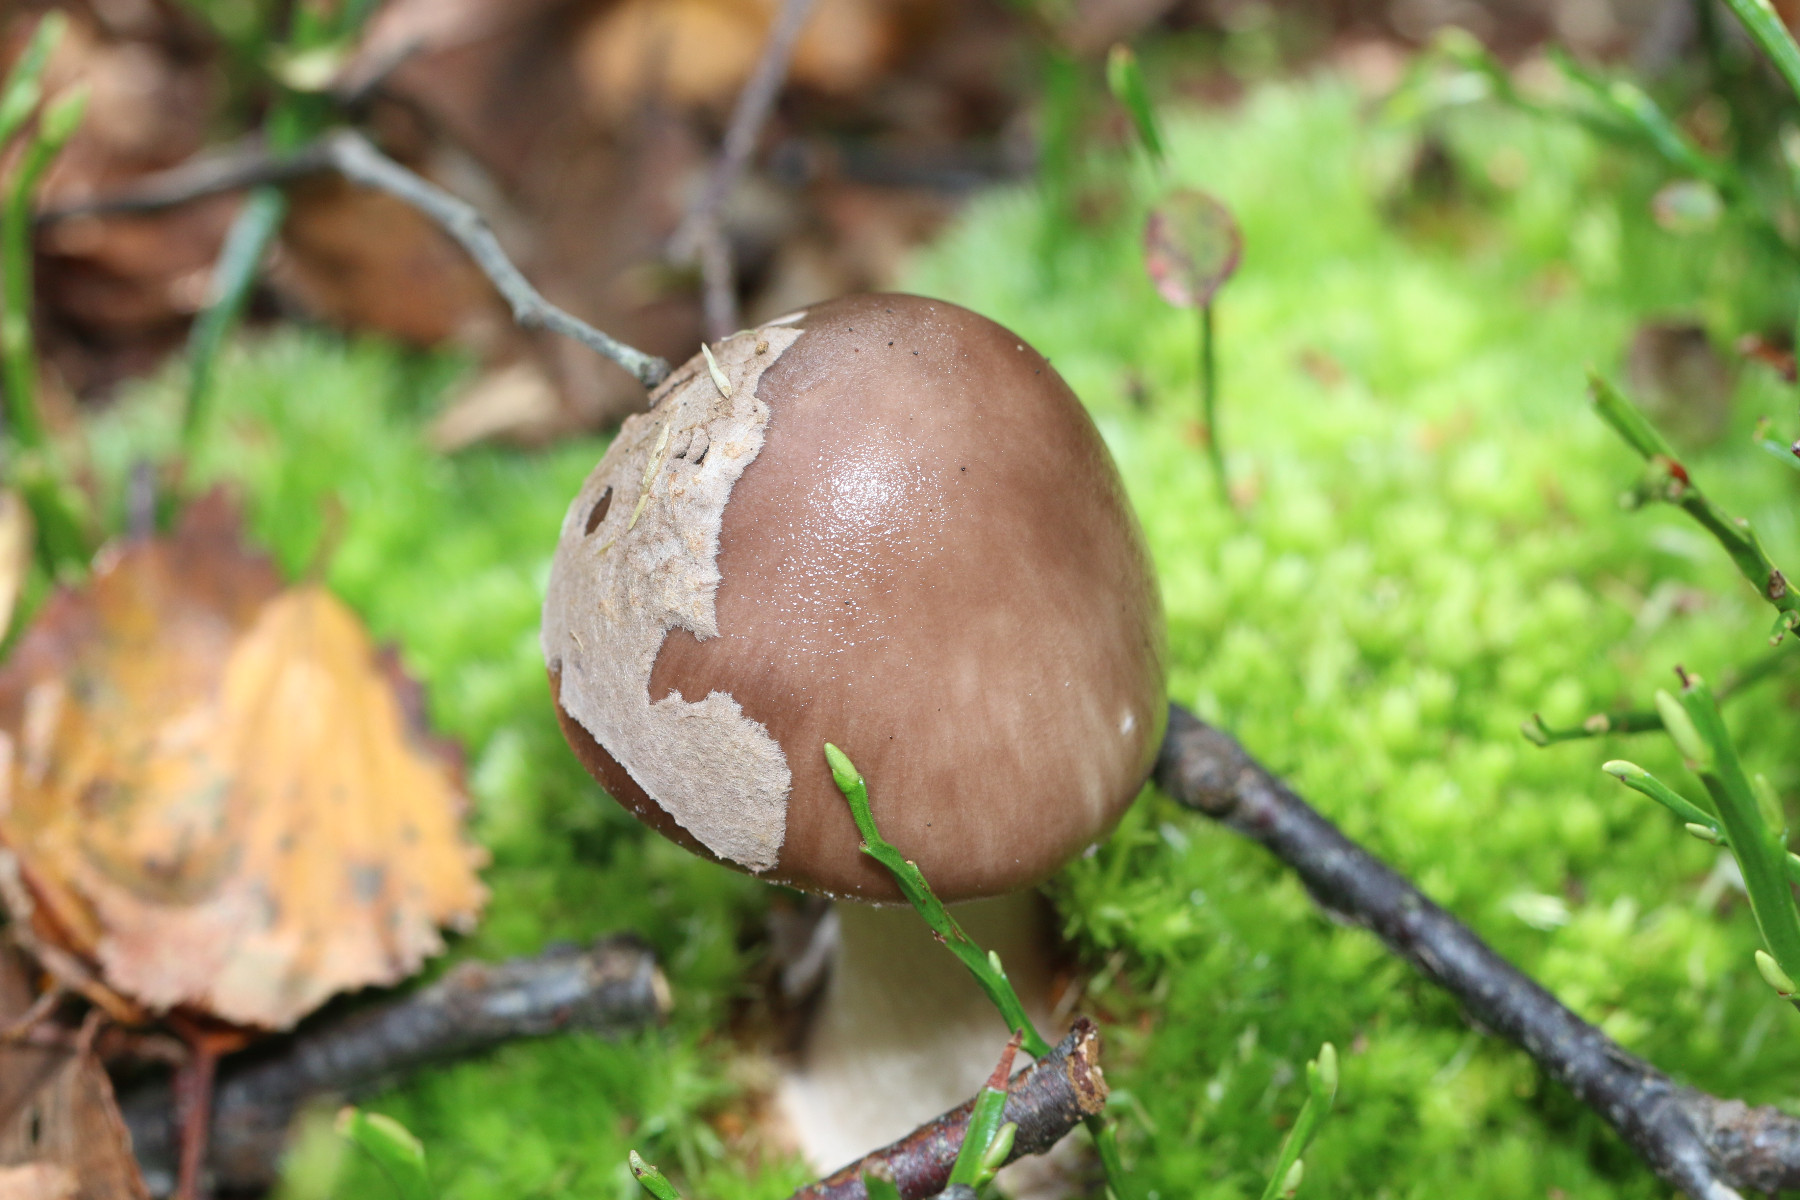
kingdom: Fungi
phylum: Basidiomycota
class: Agaricomycetes
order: Agaricales
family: Amanitaceae
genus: Amanita
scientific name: Amanita porphyria
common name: porfyr-fluesvamp
